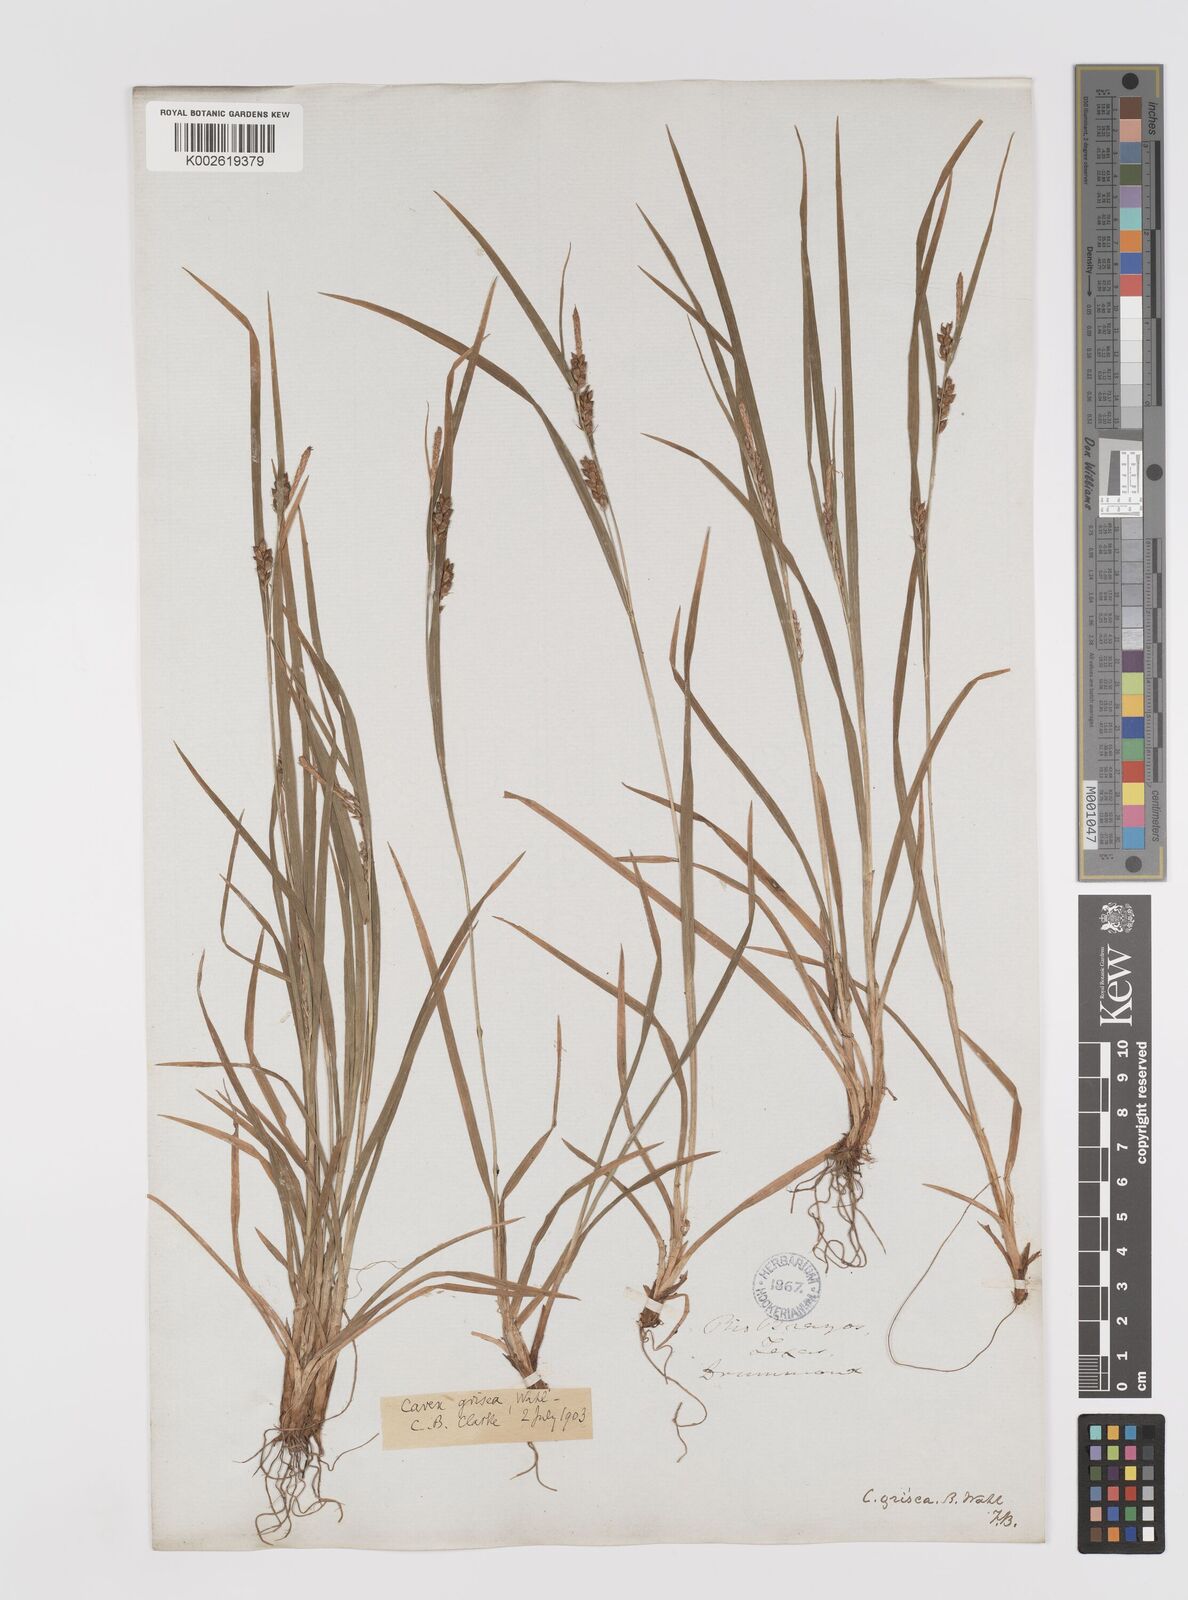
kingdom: Plantae
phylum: Tracheophyta
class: Liliopsida
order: Poales
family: Cyperaceae
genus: Carex
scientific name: Carex grisea
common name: Eastern narrow-leaved sedge
